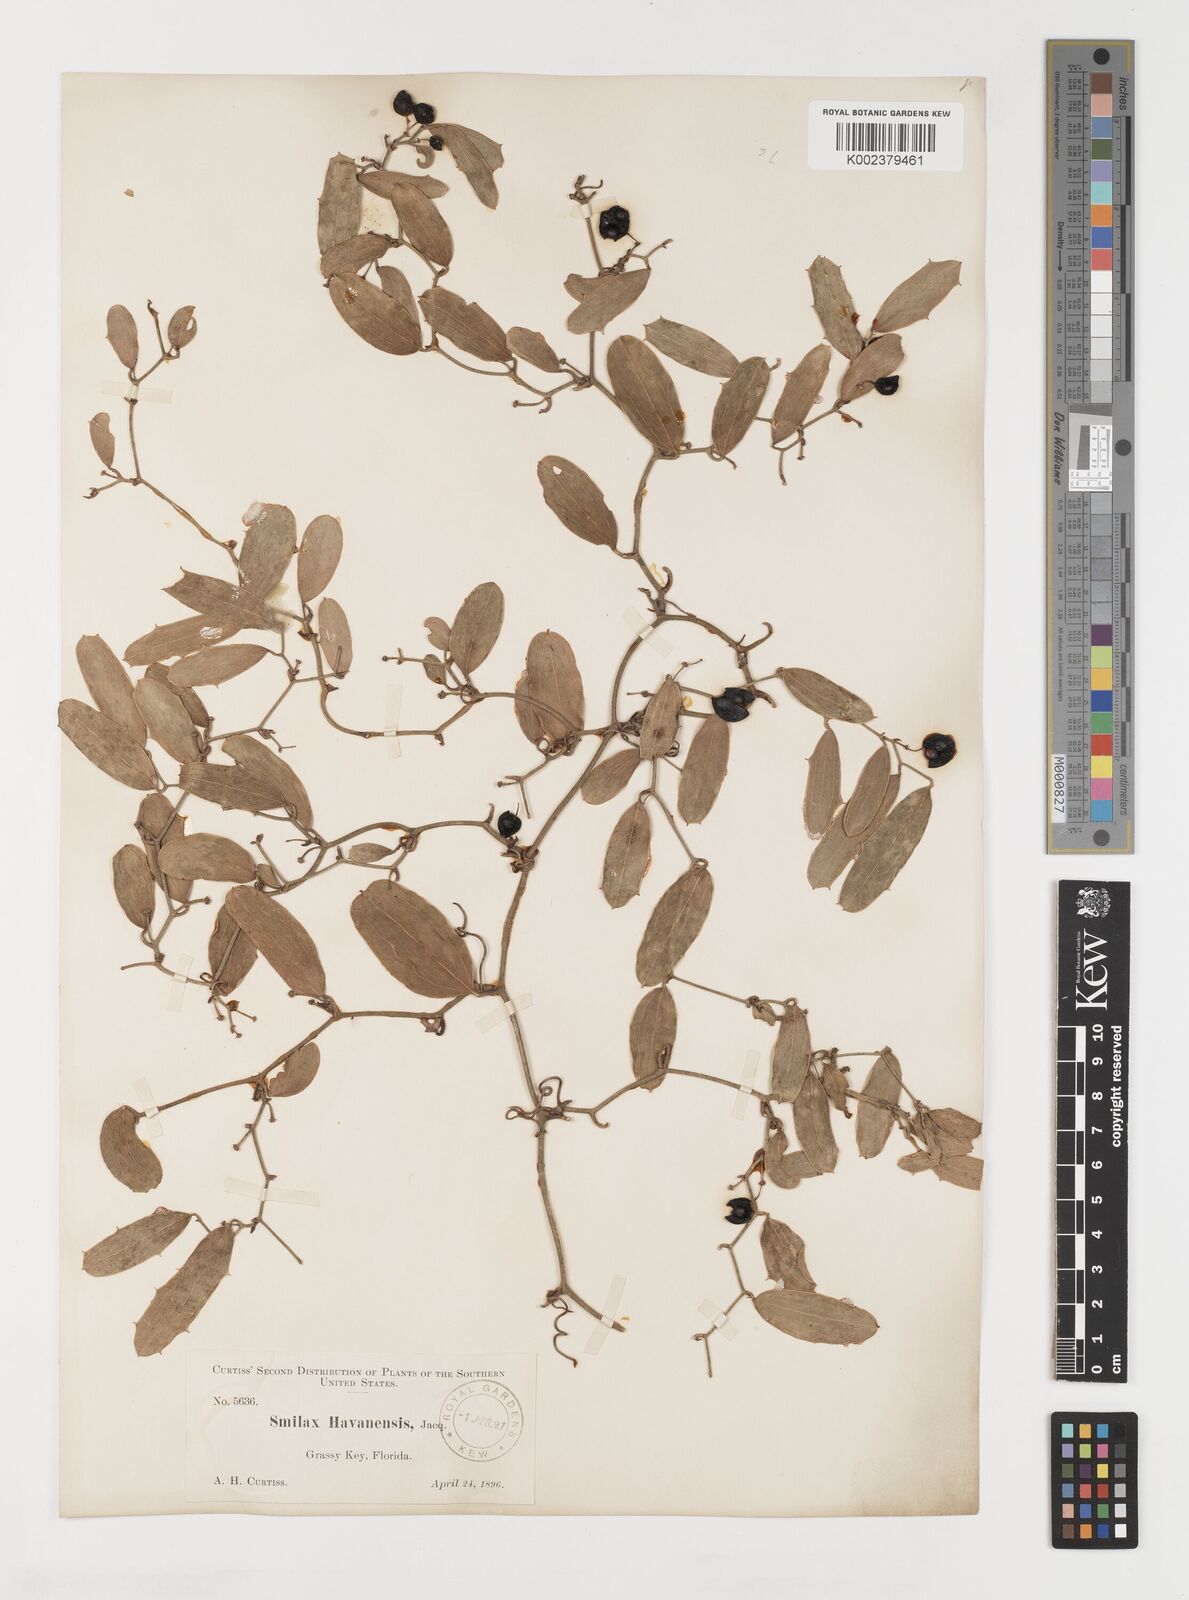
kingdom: Plantae
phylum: Tracheophyta
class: Liliopsida
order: Liliales
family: Smilacaceae
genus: Smilax
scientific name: Smilax havanensis
